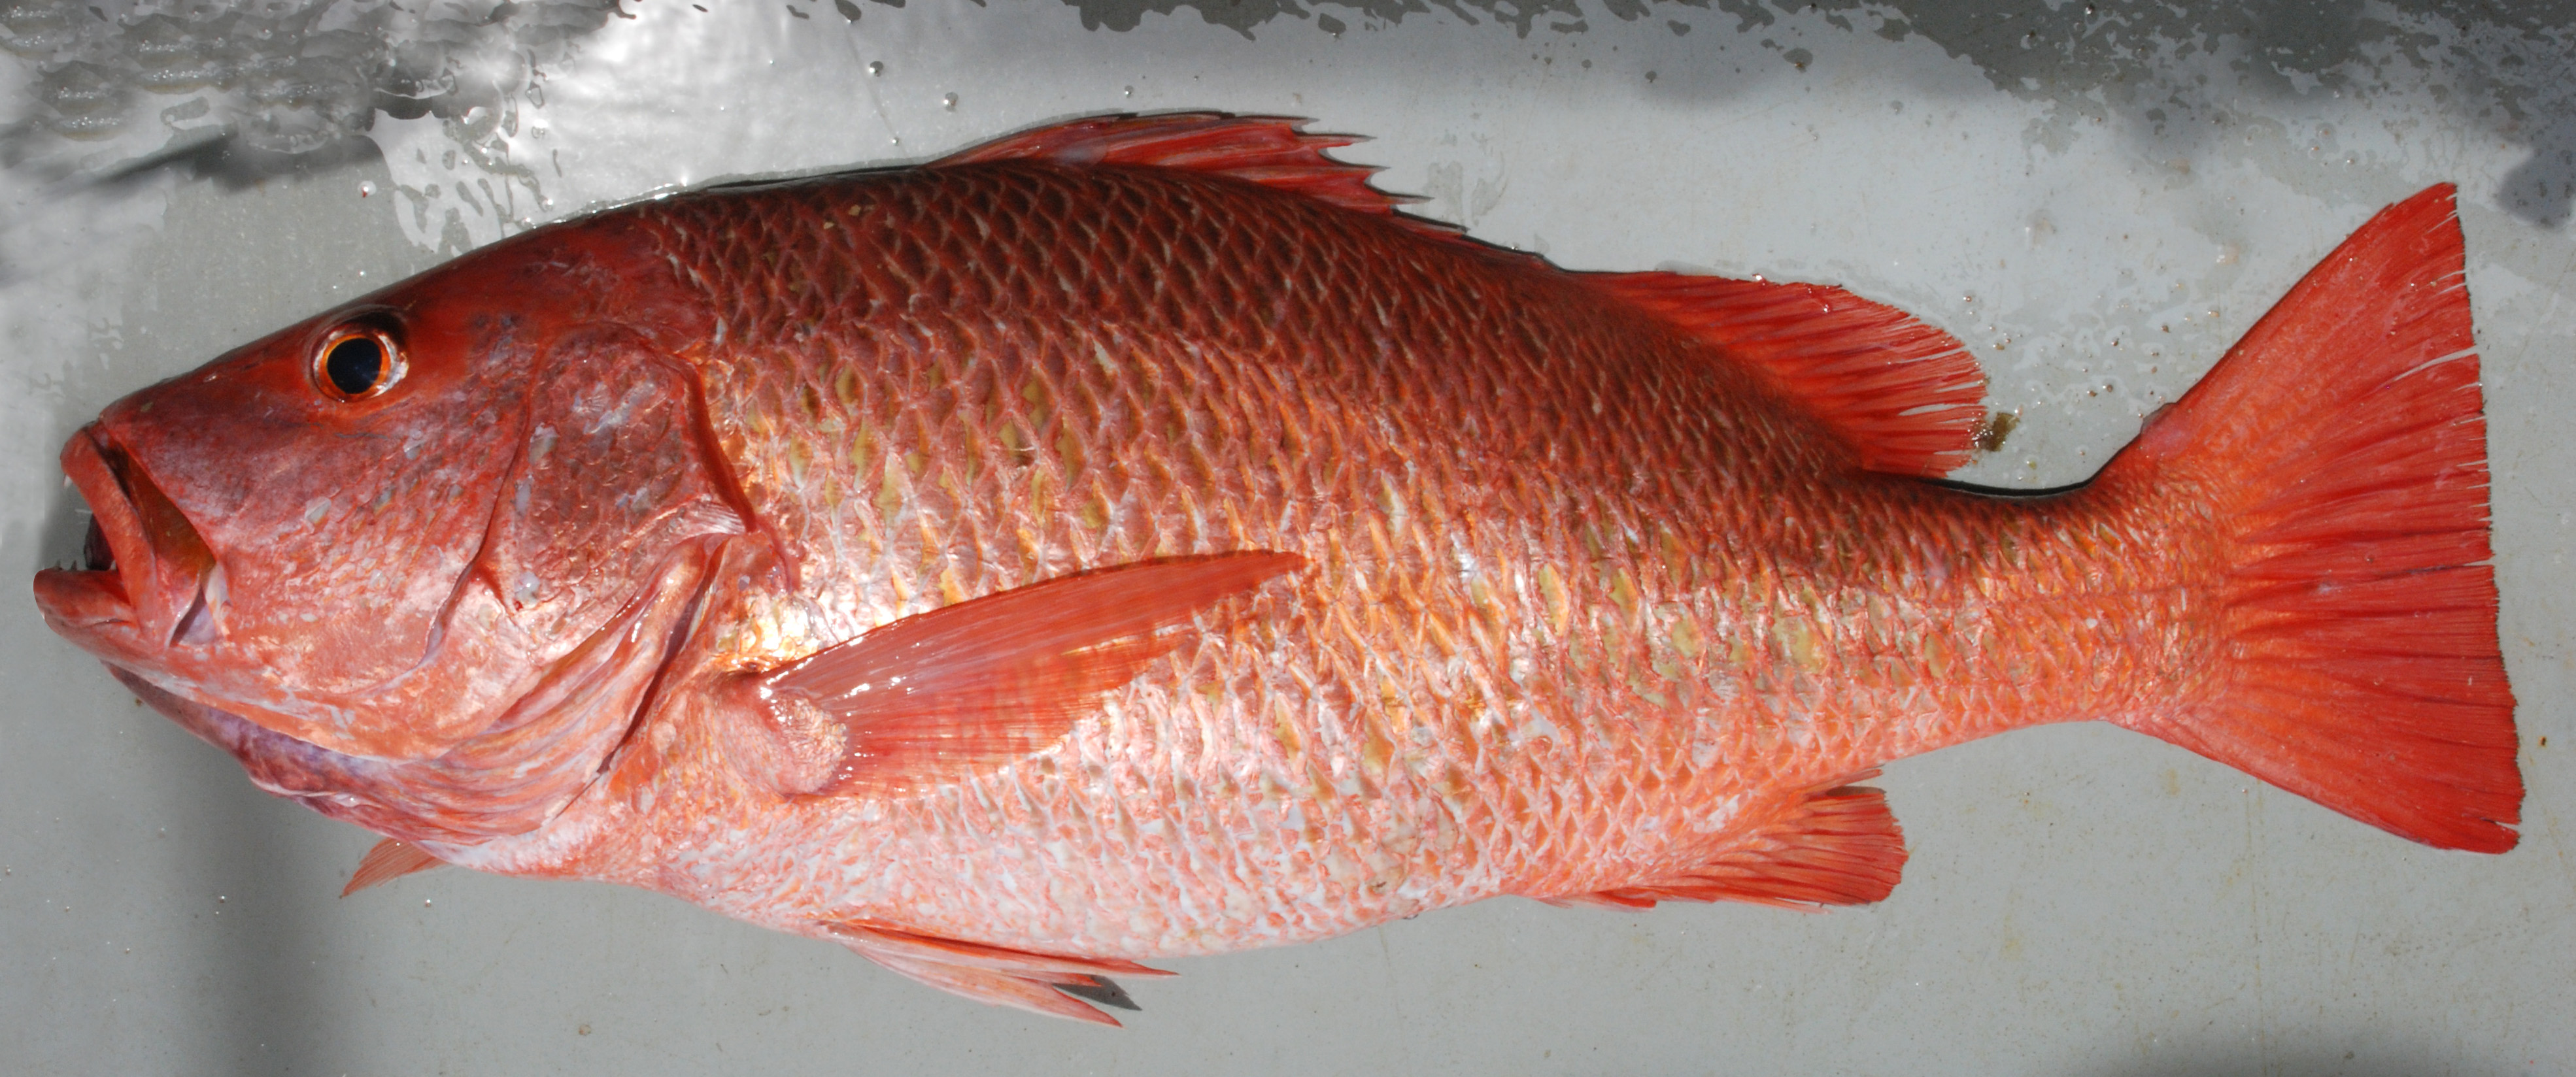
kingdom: Animalia
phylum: Chordata
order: Perciformes
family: Lutjanidae
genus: Lutjanus
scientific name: Lutjanus argentimaculatus
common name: Mangrove red snapper
